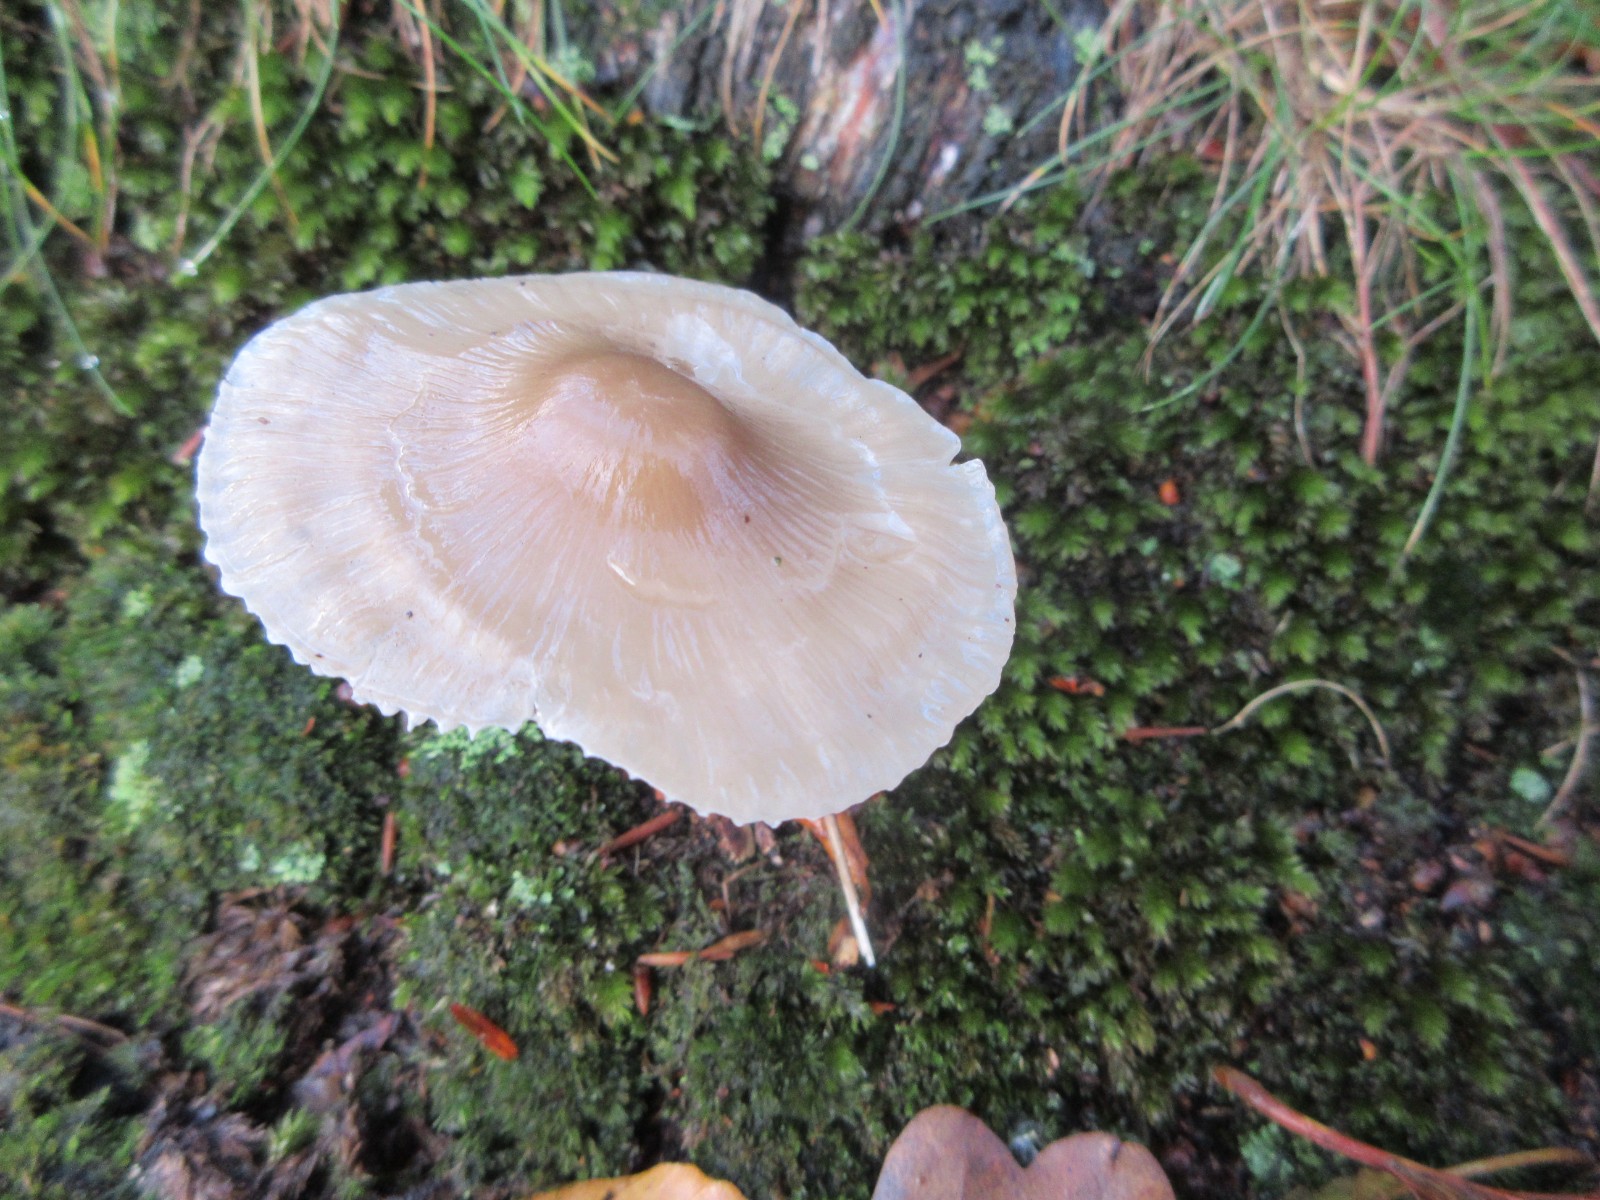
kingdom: Fungi
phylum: Basidiomycota
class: Agaricomycetes
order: Agaricales
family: Mycenaceae
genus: Mycena
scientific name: Mycena galericulata
